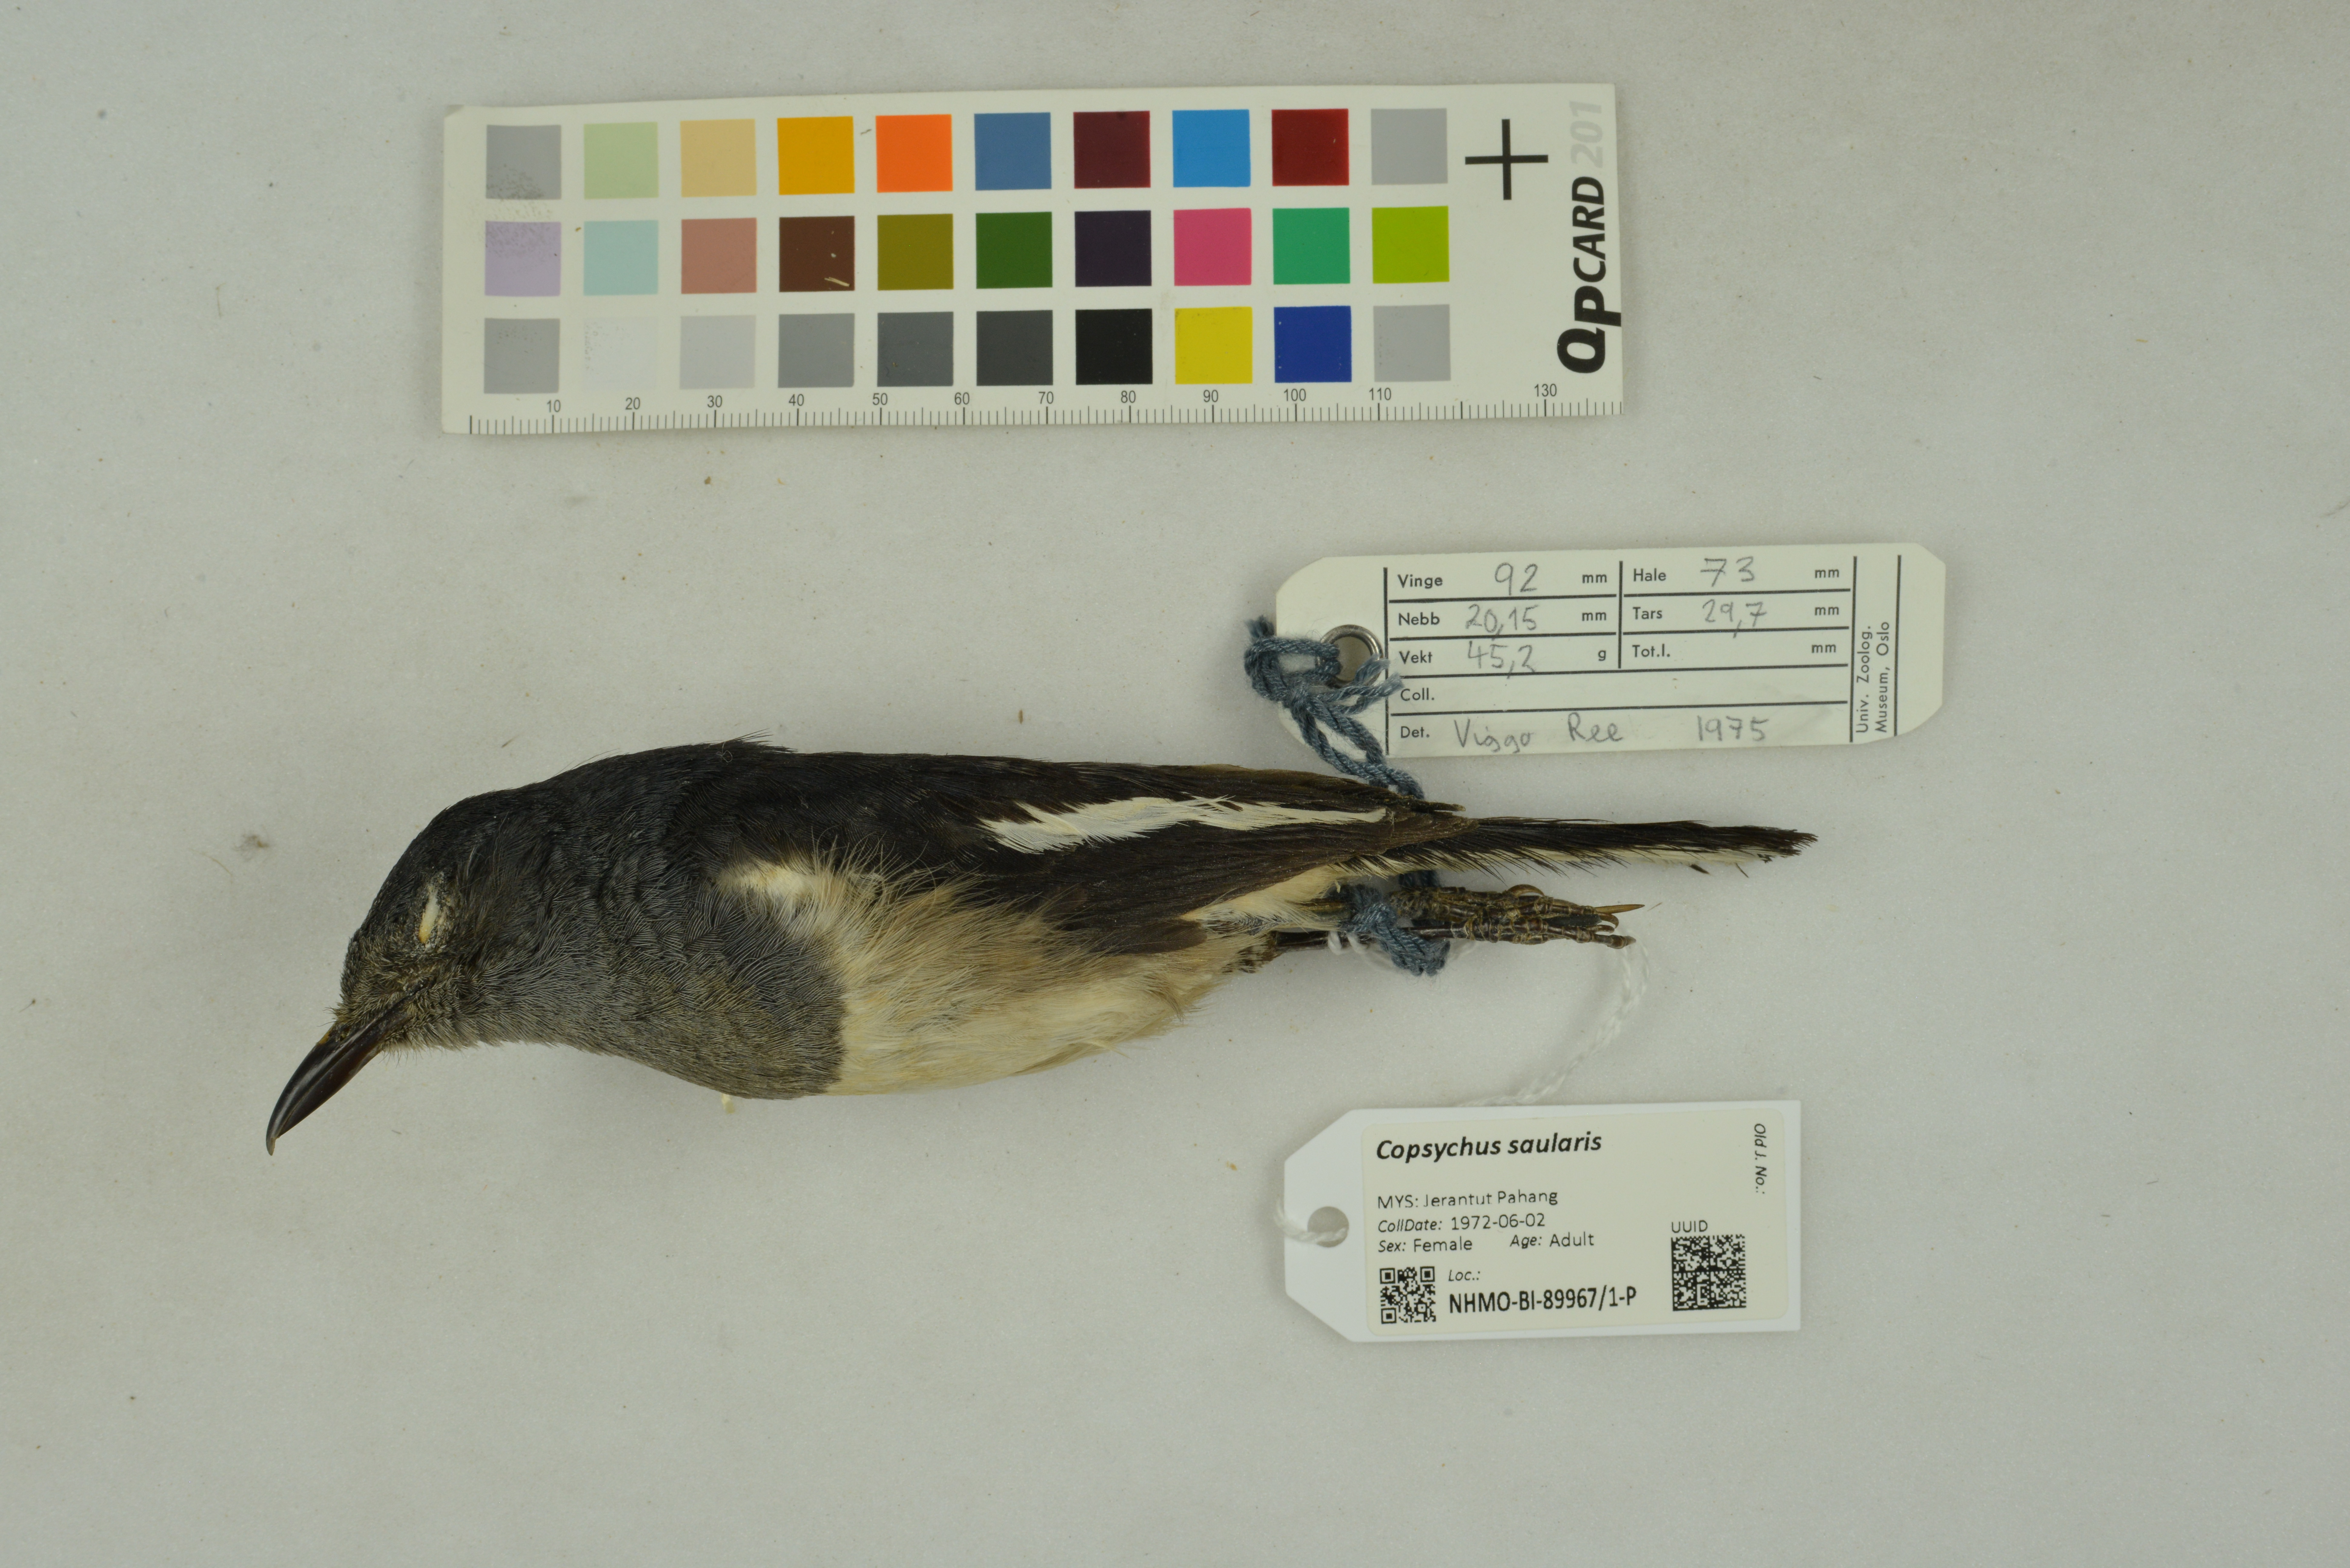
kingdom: Animalia
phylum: Chordata
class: Aves
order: Passeriformes
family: Muscicapidae
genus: Copsychus
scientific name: Copsychus saularis
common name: Oriental magpie-robin
